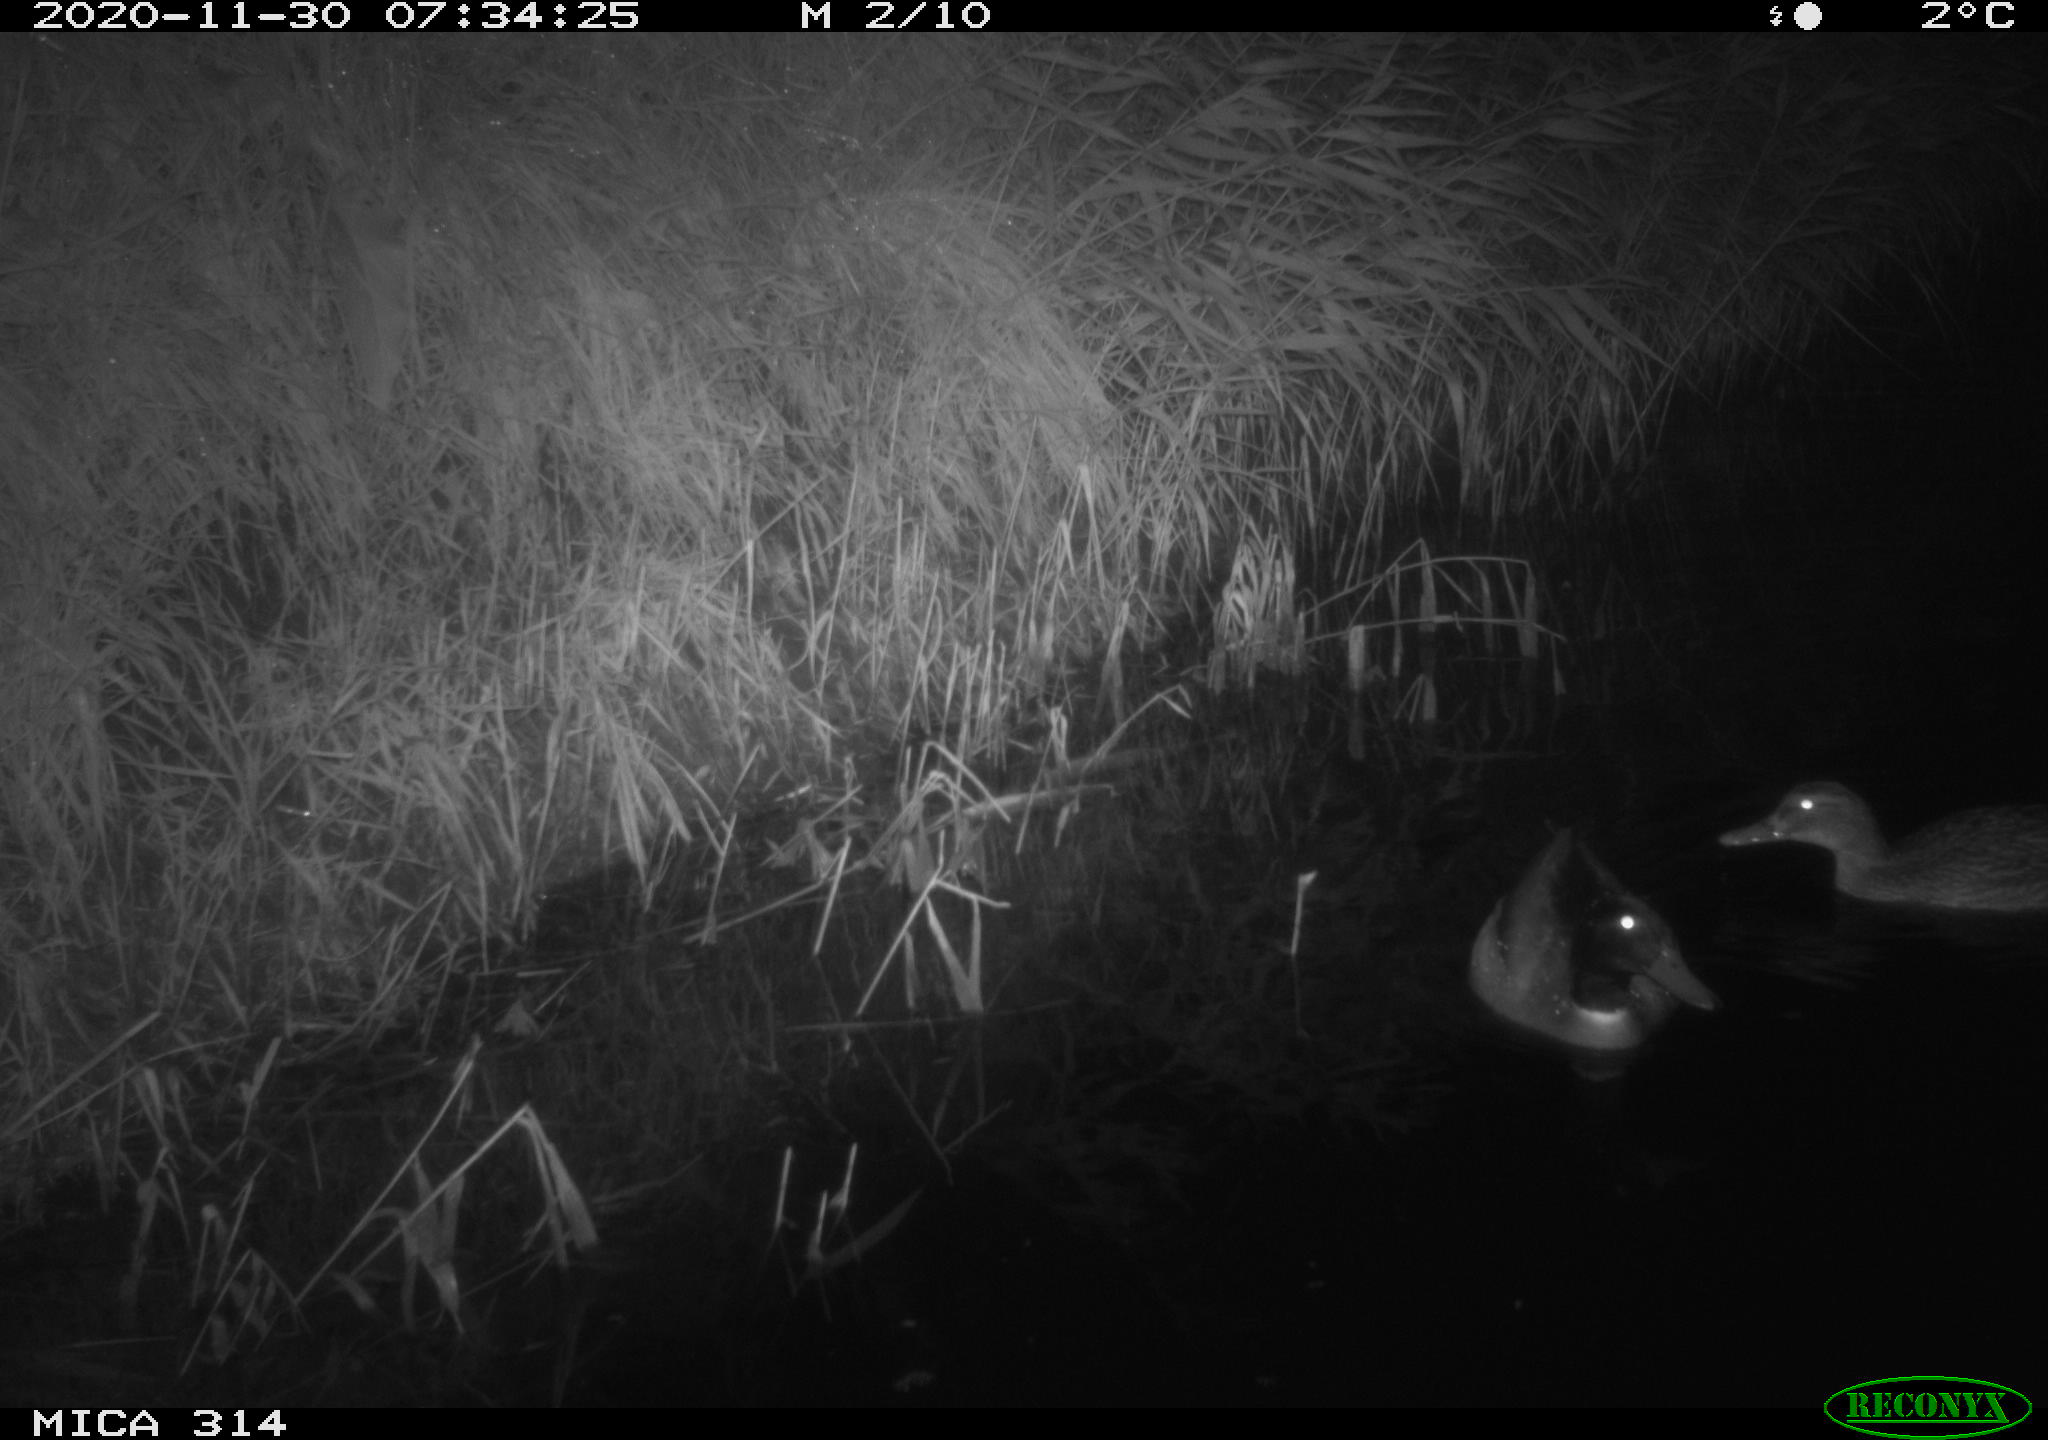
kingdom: Animalia
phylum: Chordata
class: Aves
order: Anseriformes
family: Anatidae
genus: Anas
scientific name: Anas platyrhynchos
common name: Mallard
